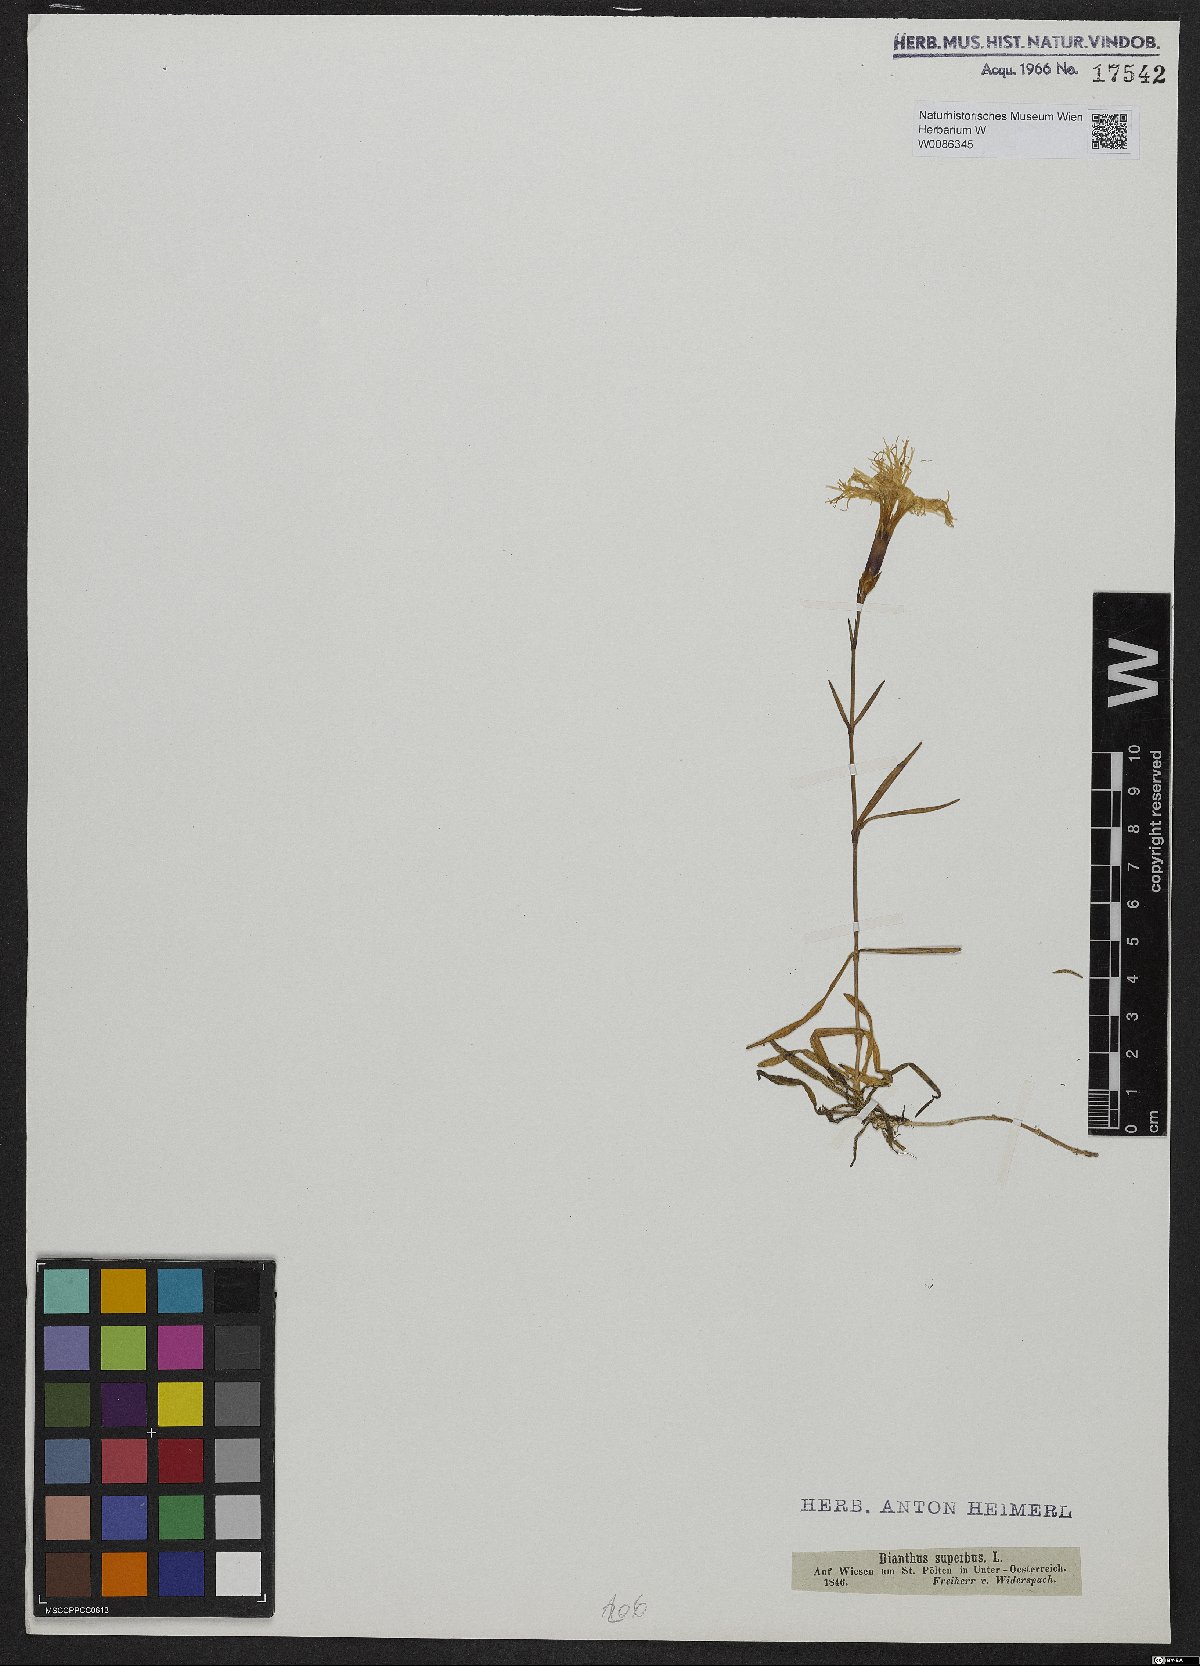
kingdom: Plantae
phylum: Tracheophyta
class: Magnoliopsida
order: Caryophyllales
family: Caryophyllaceae
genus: Dianthus
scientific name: Dianthus superbus
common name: Fringed pink
